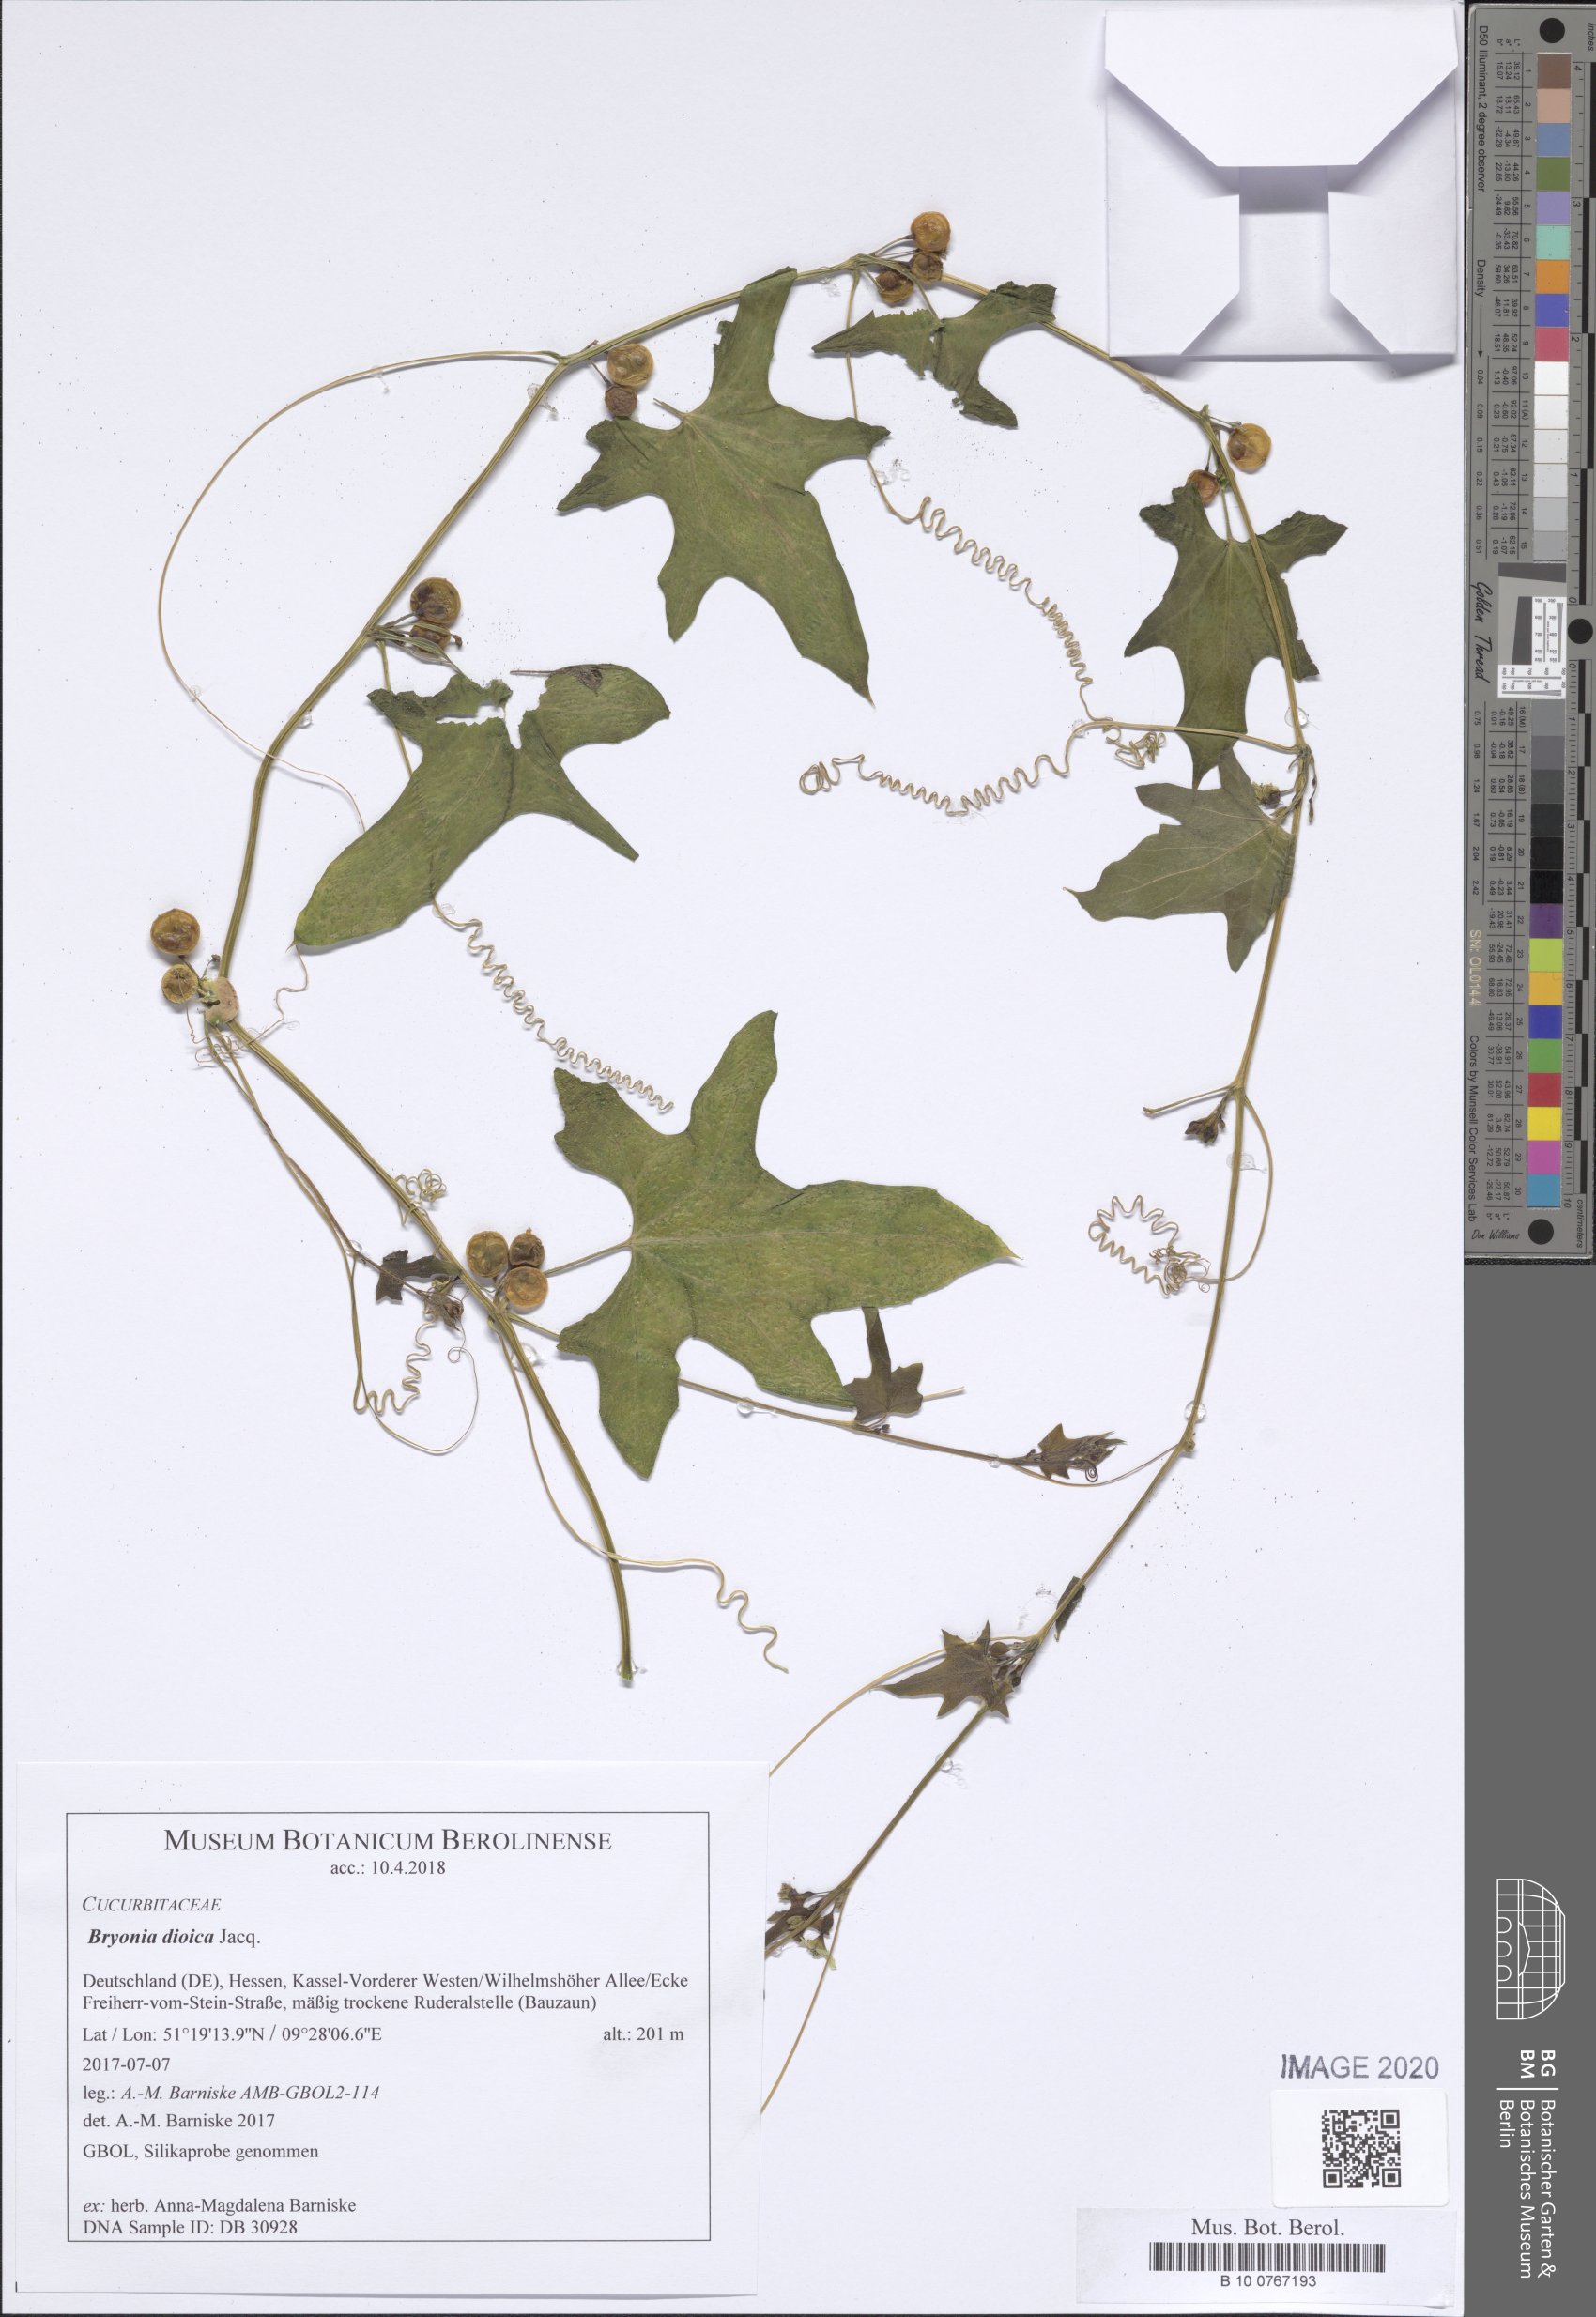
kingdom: Plantae
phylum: Tracheophyta
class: Magnoliopsida
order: Cucurbitales
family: Cucurbitaceae
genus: Bryonia
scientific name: Bryonia dioica
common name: White bryony
